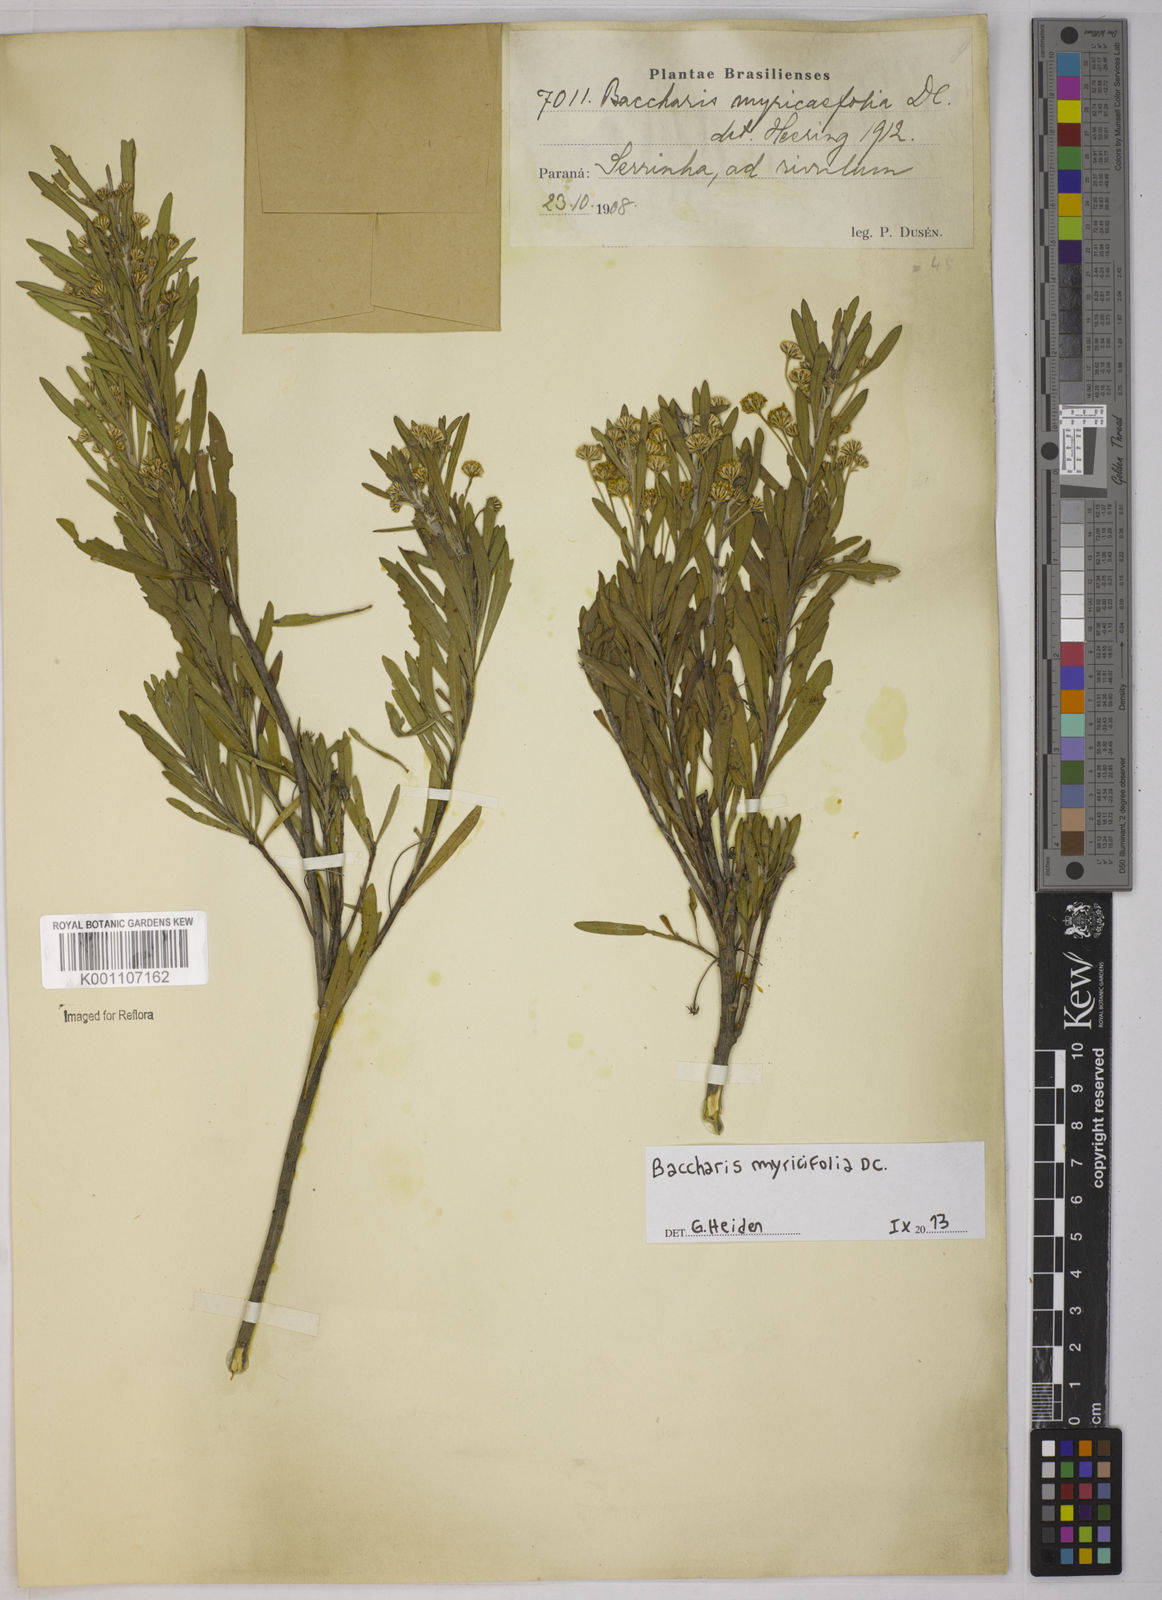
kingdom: Plantae
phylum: Tracheophyta
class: Magnoliopsida
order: Asterales
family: Asteraceae
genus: Baccharis
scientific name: Baccharis myricifolia
